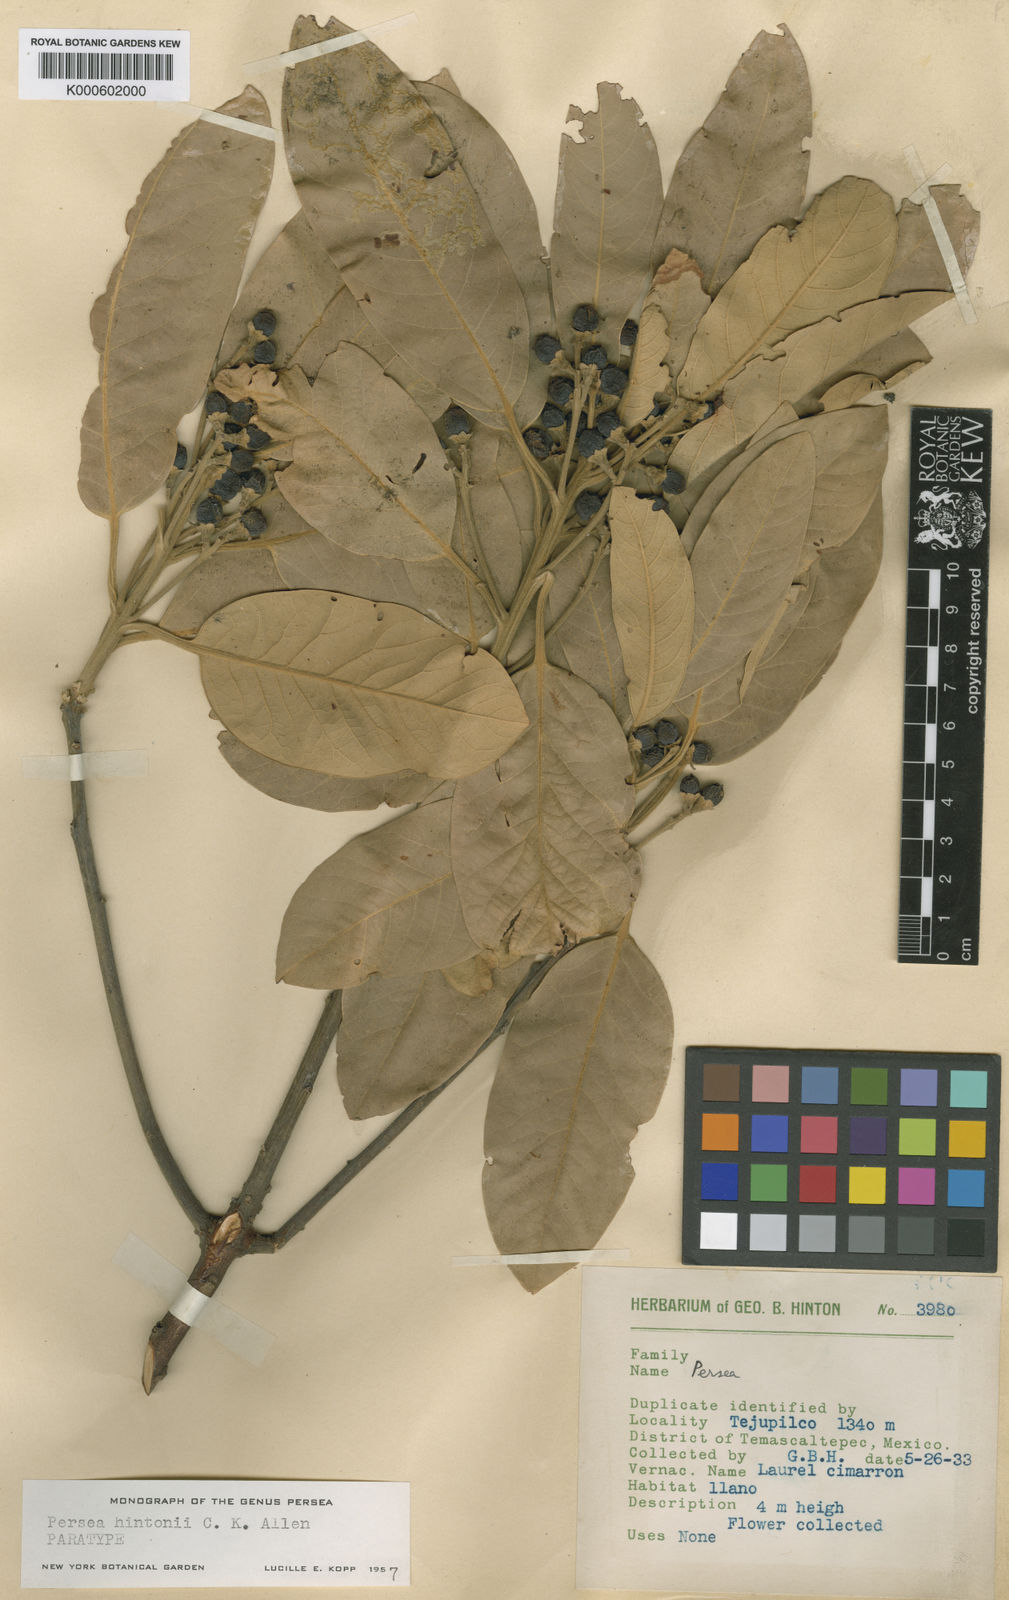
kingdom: Plantae
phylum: Tracheophyta
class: Magnoliopsida
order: Laurales
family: Lauraceae
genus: Persea
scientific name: Persea hintonii
